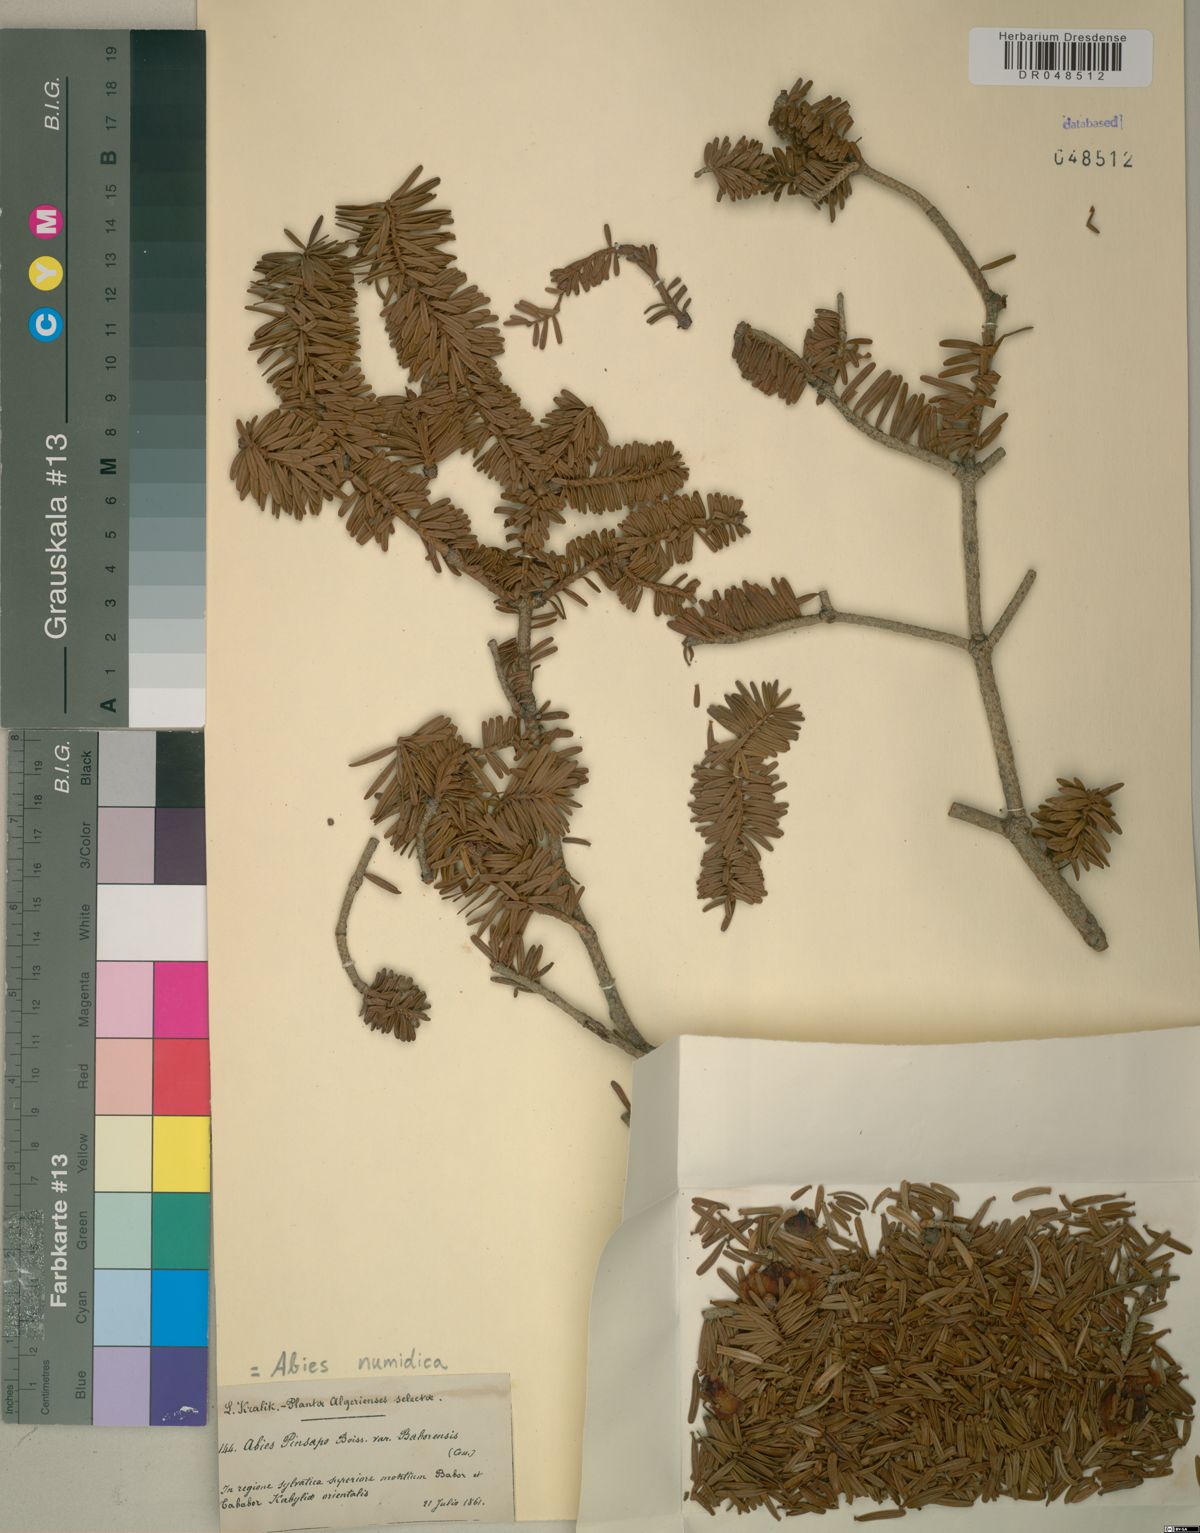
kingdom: Plantae
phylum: Tracheophyta
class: Pinopsida
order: Pinales
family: Pinaceae
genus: Abies
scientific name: Abies numidica
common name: Algerian fir
